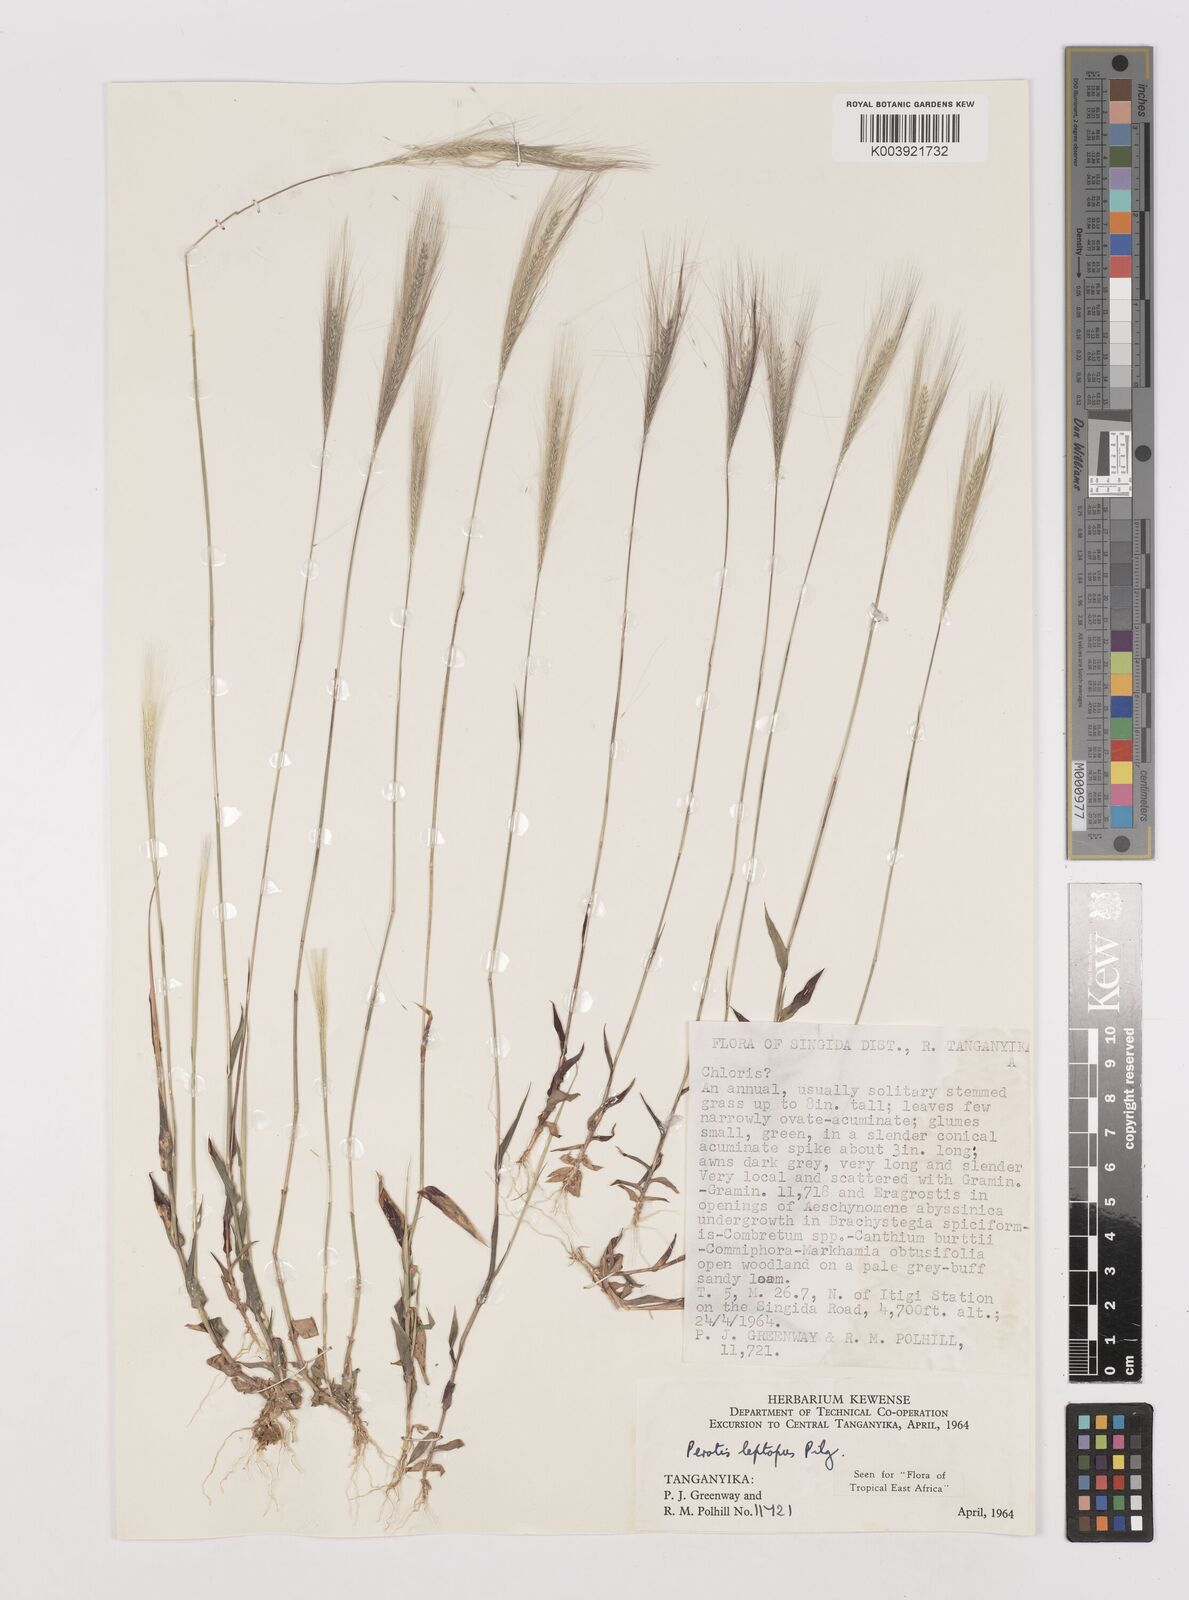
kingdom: Plantae
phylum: Tracheophyta
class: Liliopsida
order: Poales
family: Poaceae
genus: Perotis
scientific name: Perotis leptopus
